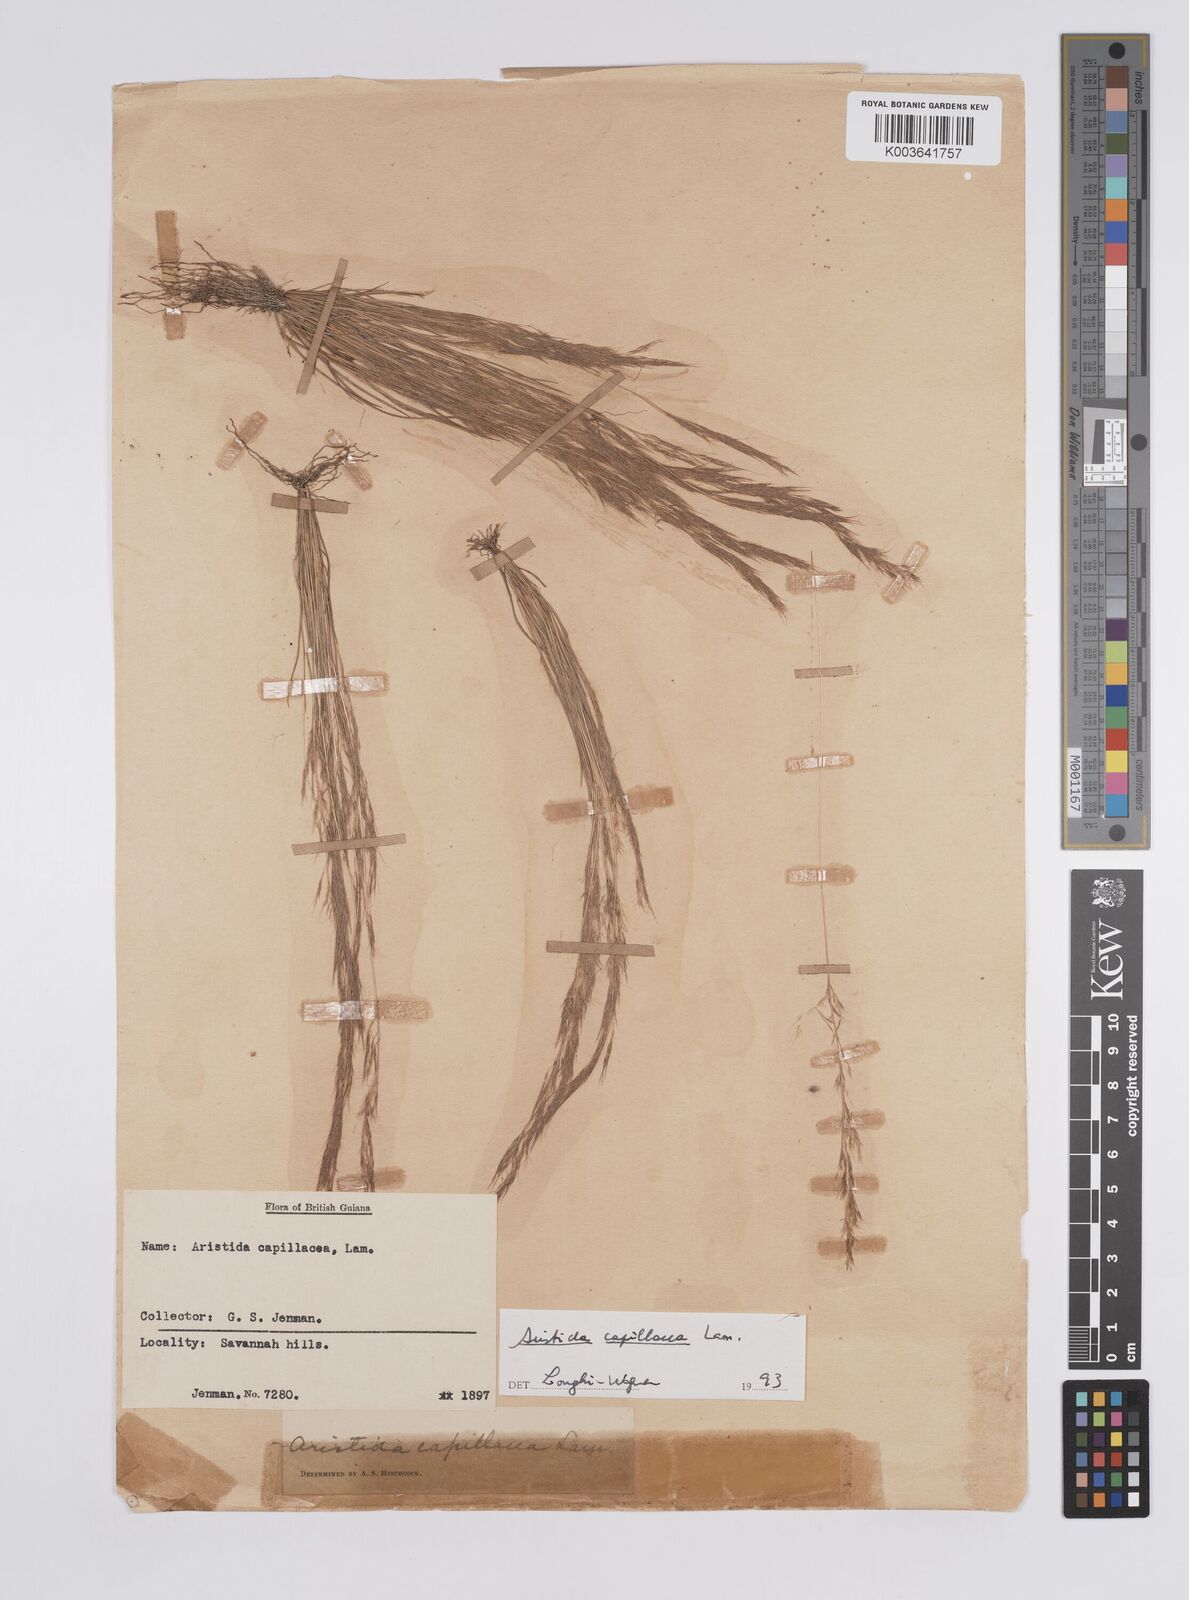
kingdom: Plantae
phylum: Tracheophyta
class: Liliopsida
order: Poales
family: Poaceae
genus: Aristida
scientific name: Aristida capillacea
